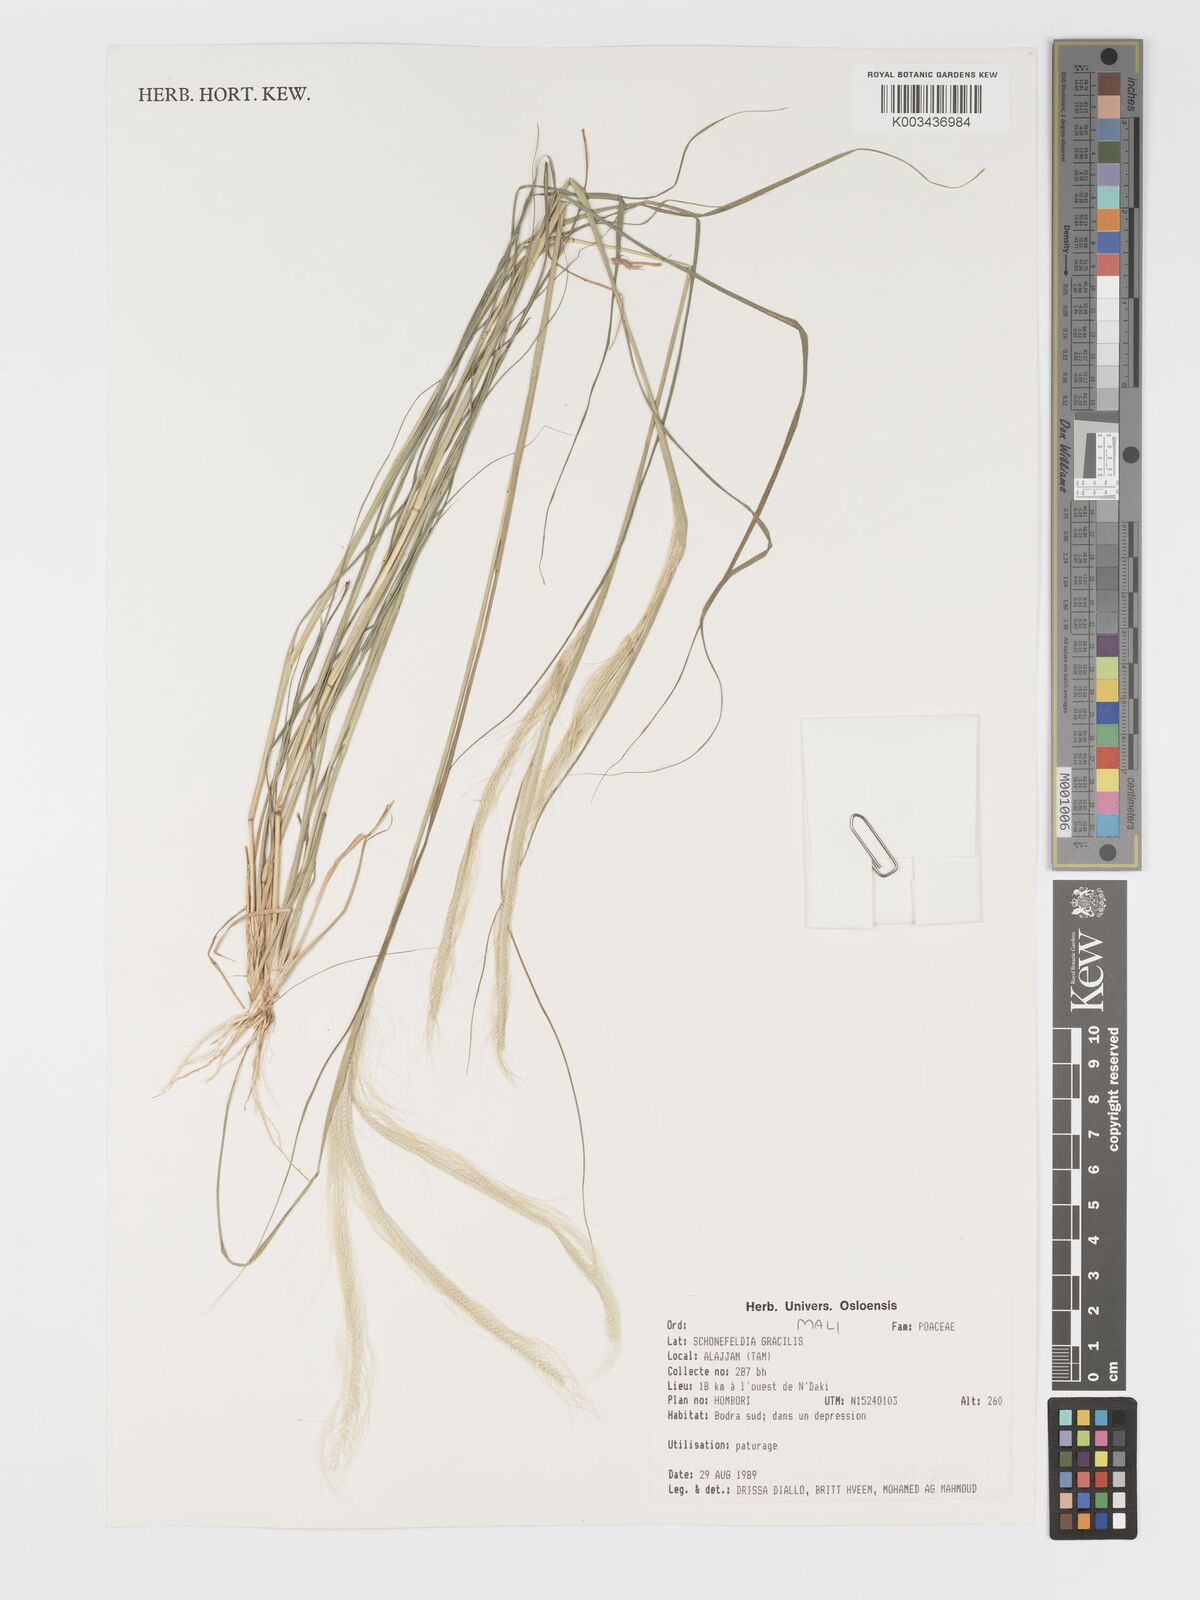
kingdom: Plantae
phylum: Tracheophyta
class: Liliopsida
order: Poales
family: Poaceae
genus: Schoenefeldia
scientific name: Schoenefeldia gracilis
